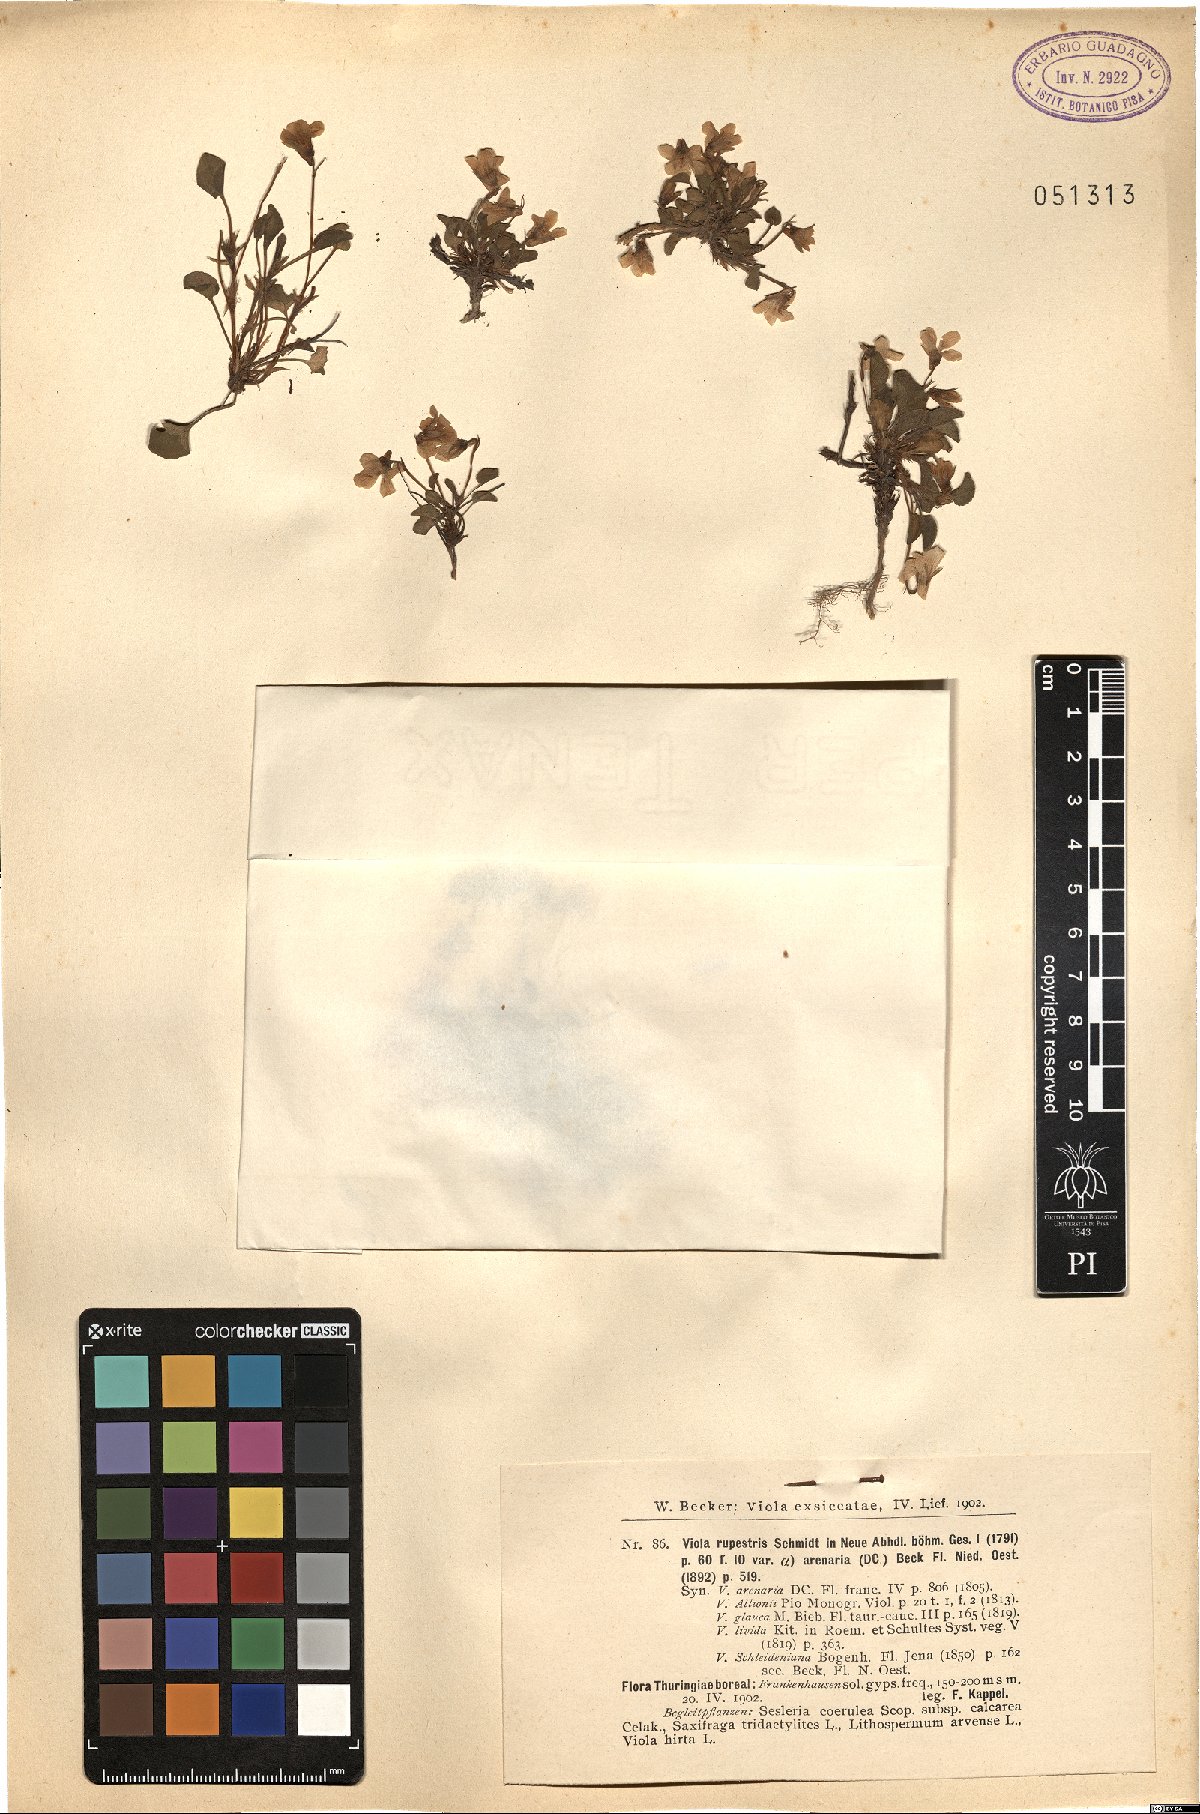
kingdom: Plantae
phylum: Tracheophyta
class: Magnoliopsida
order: Malpighiales
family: Violaceae
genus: Viola
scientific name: Viola rupestris
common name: Teesdale violet
